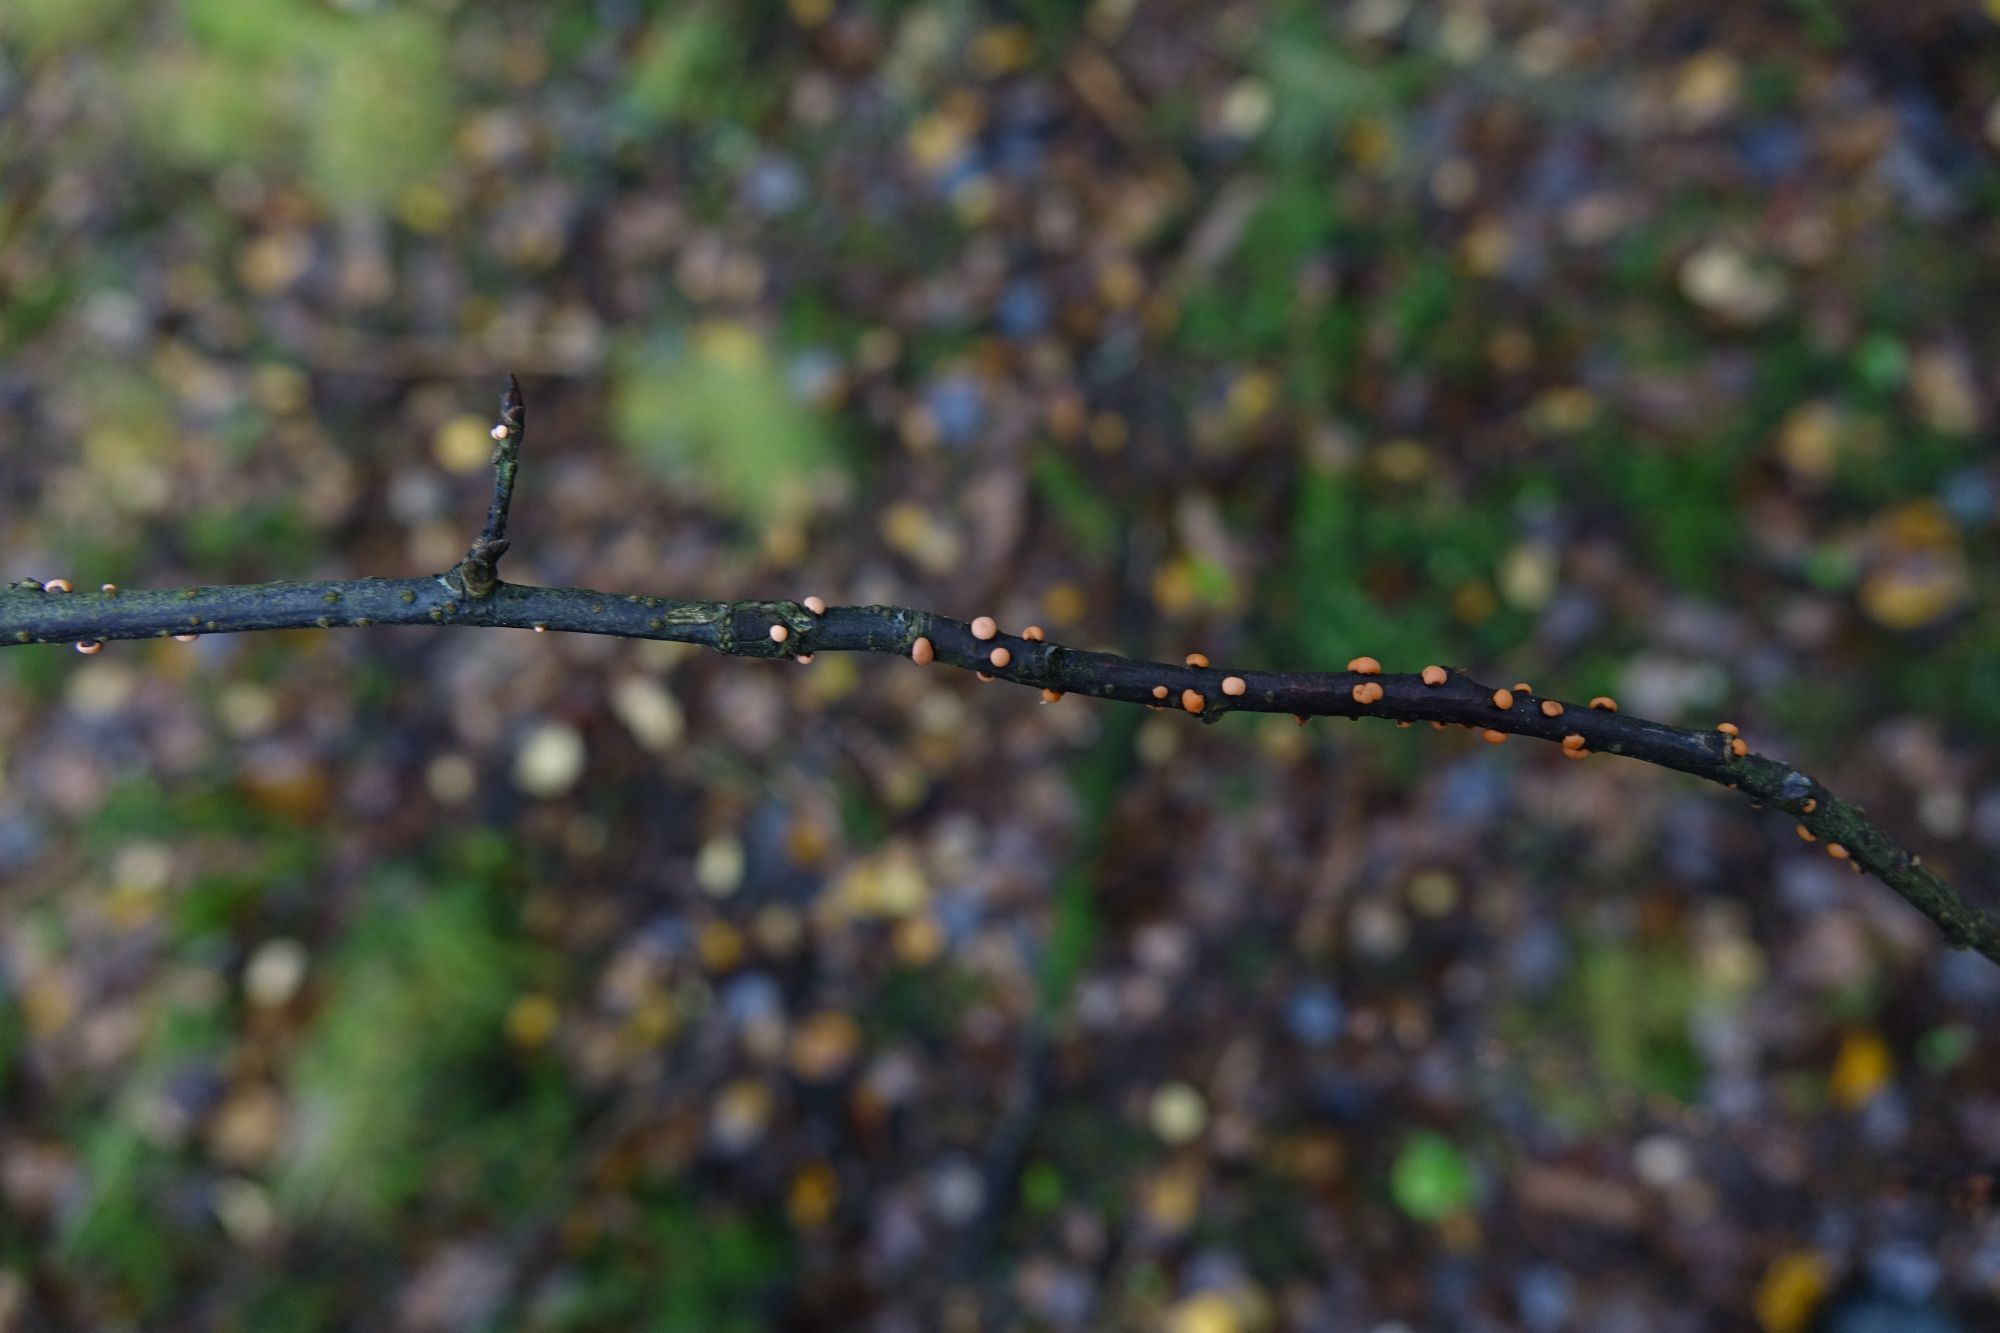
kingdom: Fungi
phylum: Ascomycota
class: Sordariomycetes
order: Hypocreales
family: Nectriaceae
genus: Nectria
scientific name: Nectria cinnabarina
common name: Coral spot
